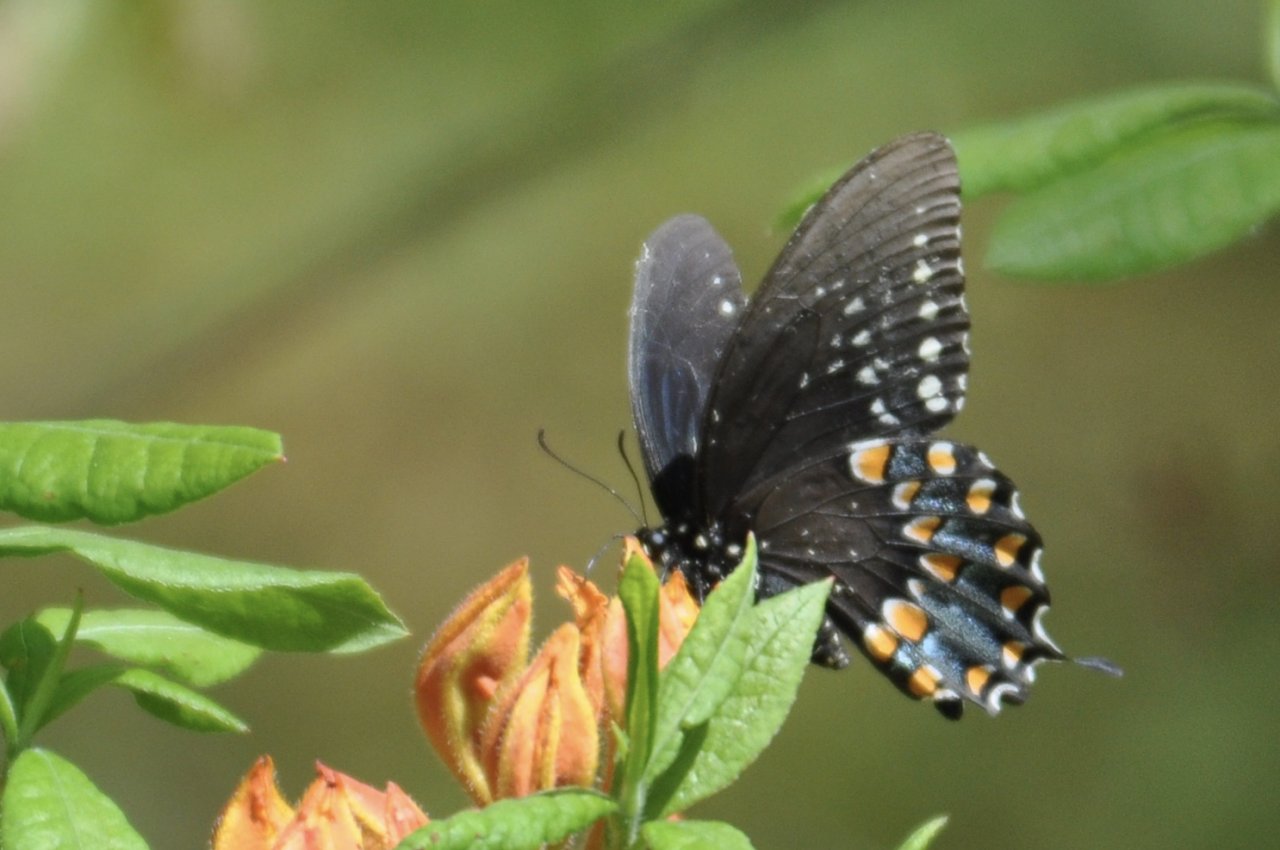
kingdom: Animalia
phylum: Arthropoda
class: Insecta
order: Lepidoptera
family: Papilionidae
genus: Pterourus
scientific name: Pterourus troilus
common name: Spicebush Swallowtail
